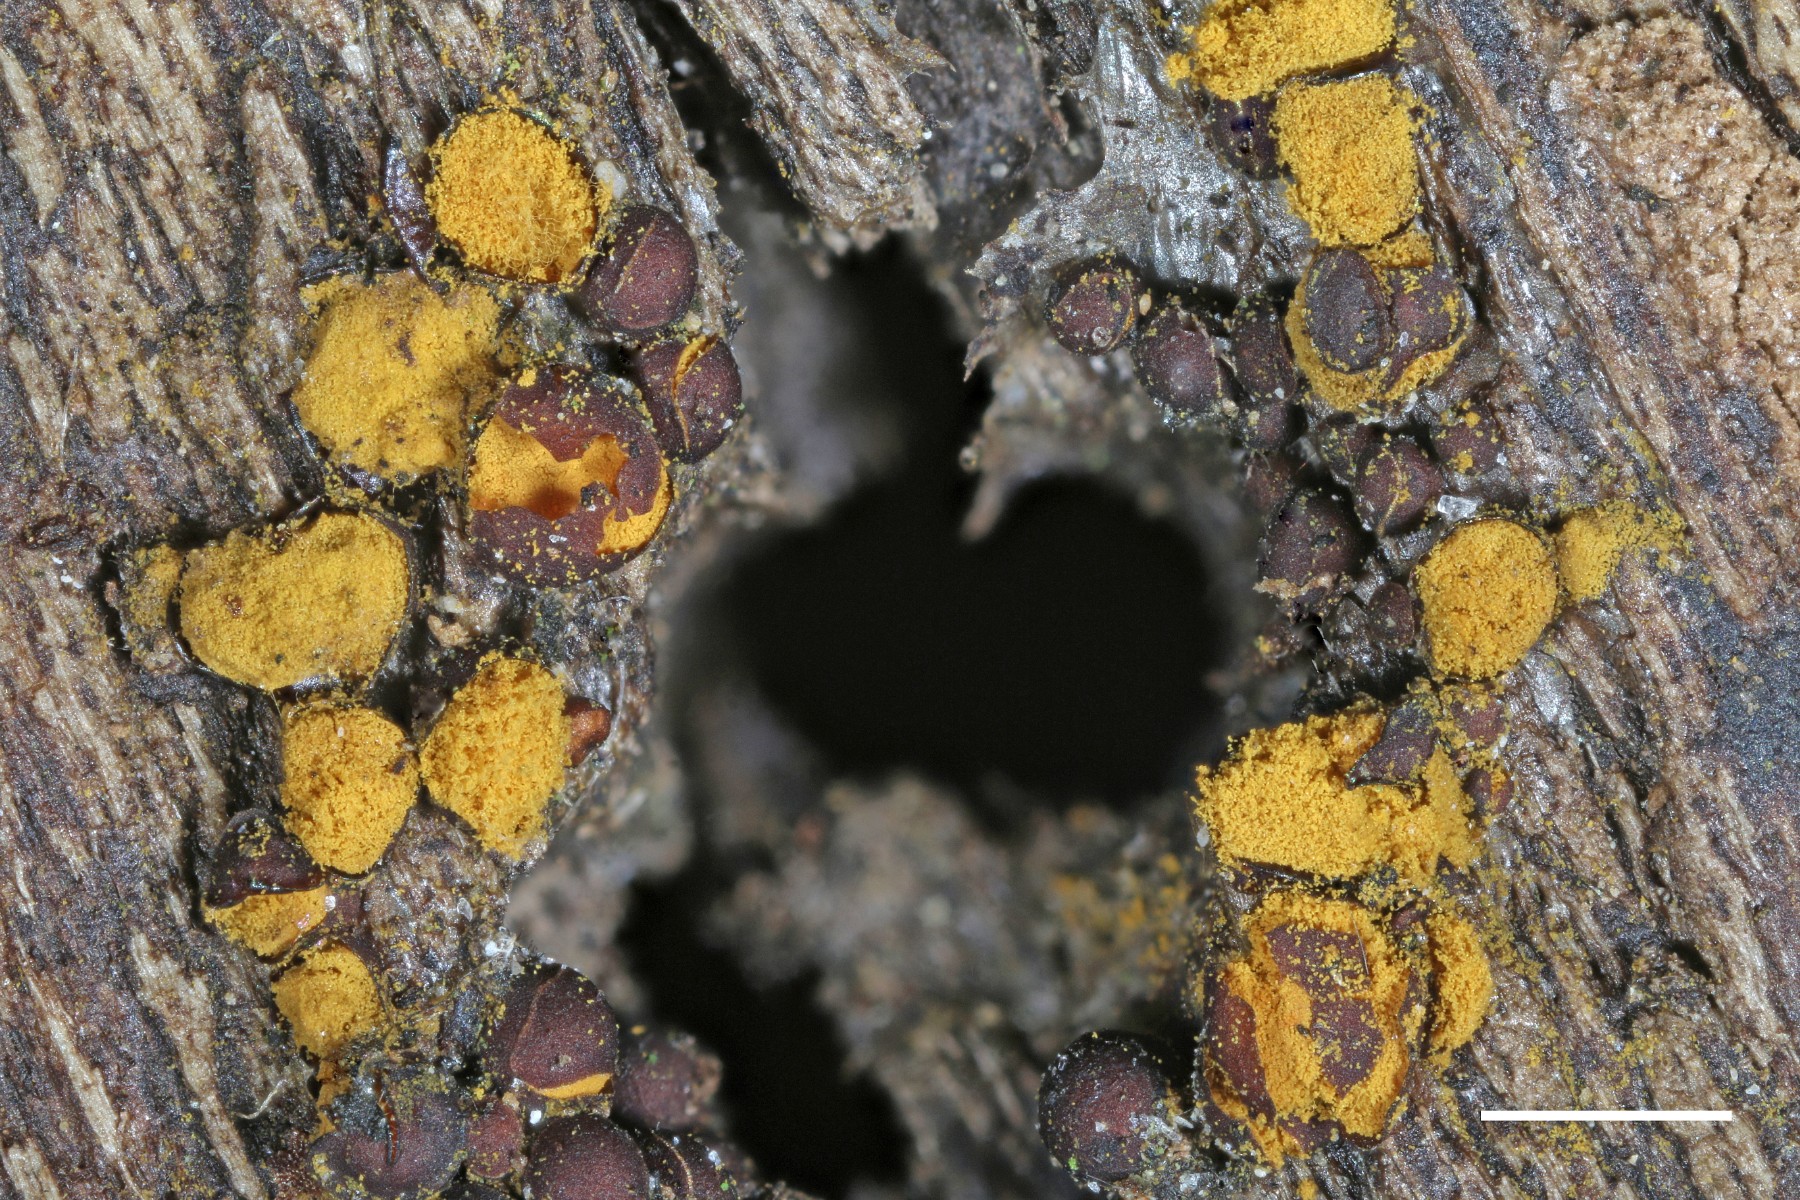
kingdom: Protozoa
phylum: Mycetozoa
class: Myxomycetes
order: Trichiales
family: Trichiaceae
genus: Perichaena
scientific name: Perichaena corticalis
